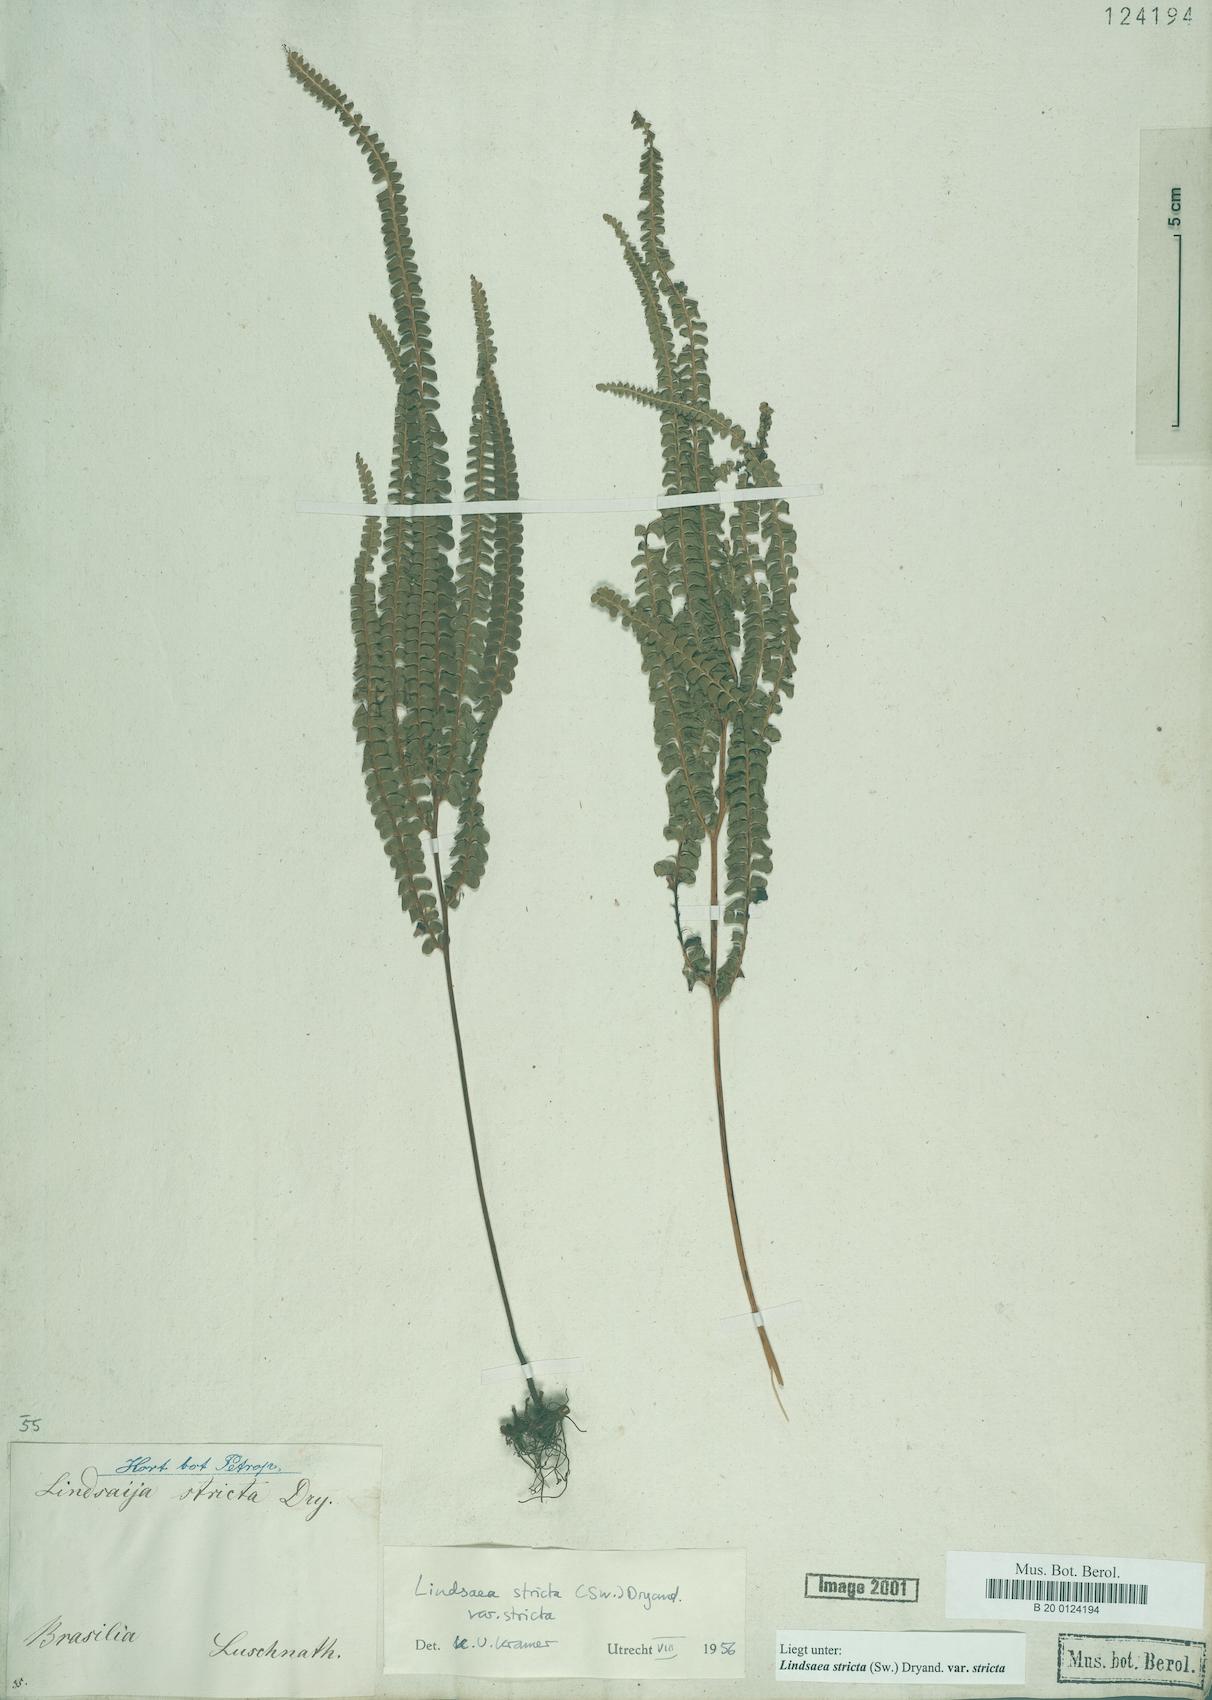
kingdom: Plantae
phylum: Tracheophyta
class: Polypodiopsida
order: Polypodiales
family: Lindsaeaceae
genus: Lindsaea
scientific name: Lindsaea stricta
